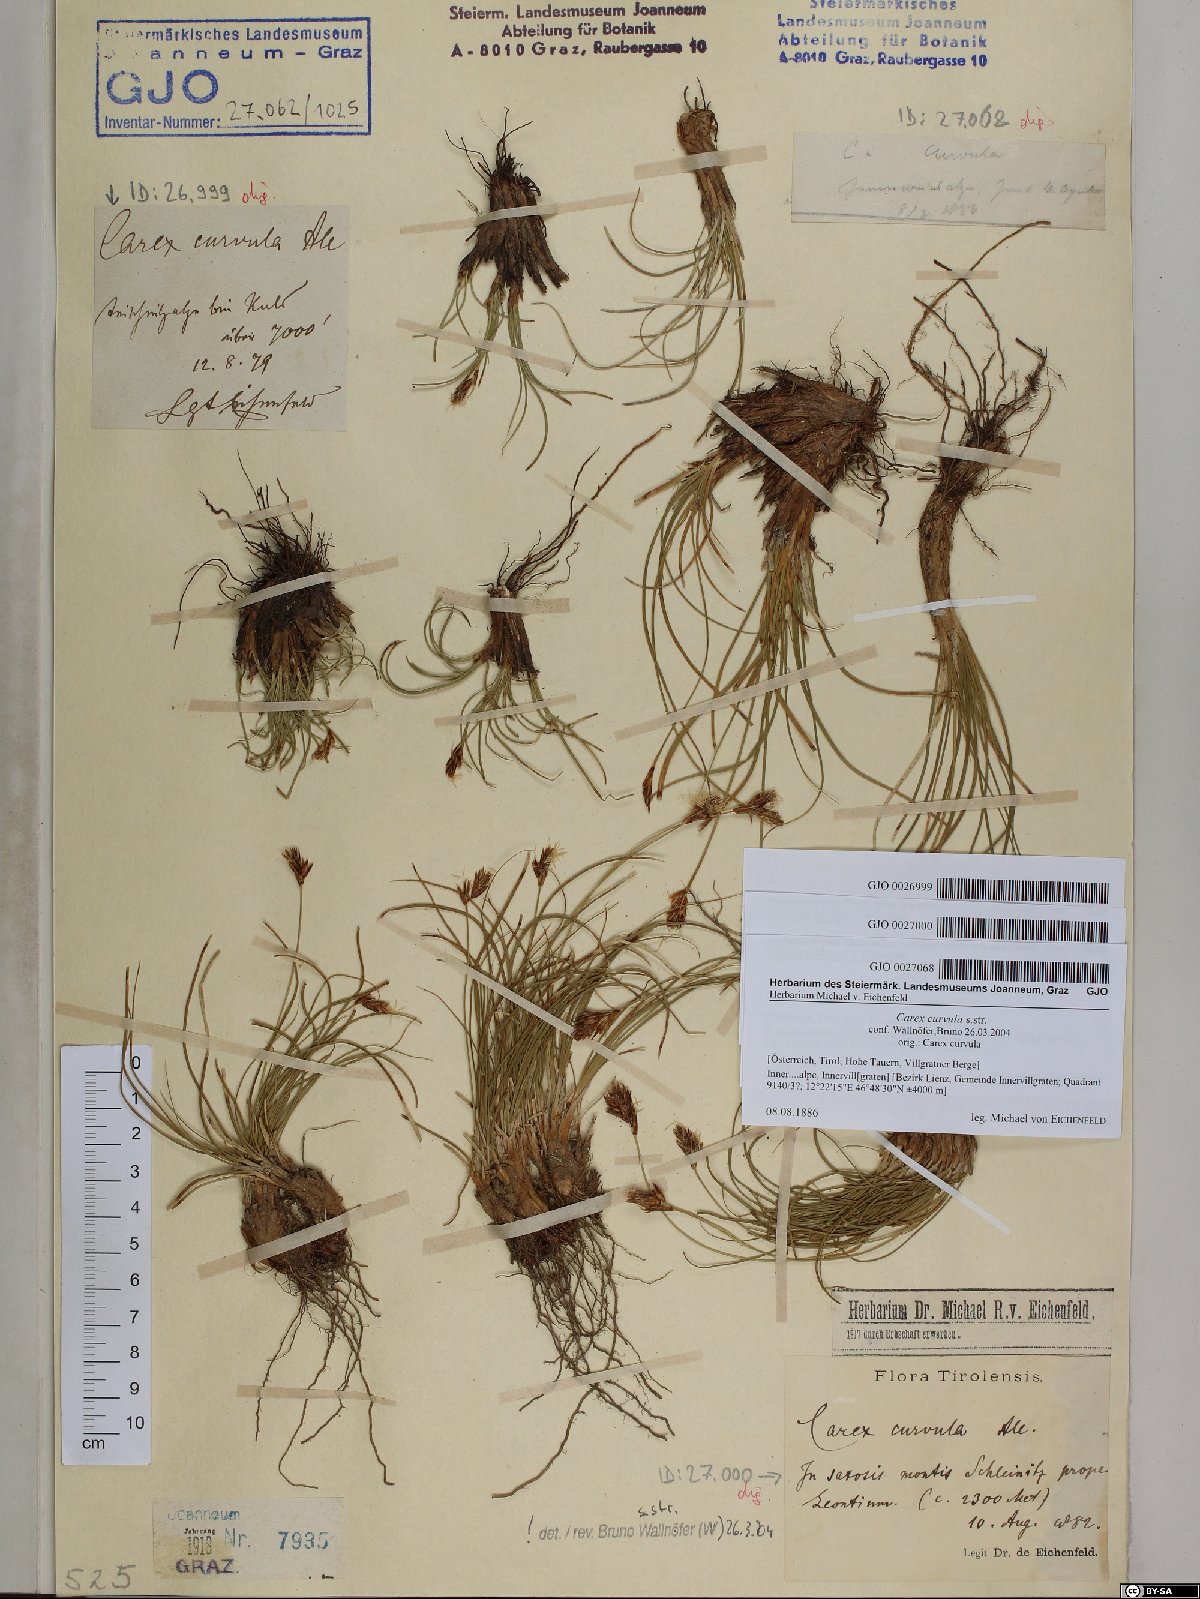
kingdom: Plantae
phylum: Tracheophyta
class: Liliopsida
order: Poales
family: Cyperaceae
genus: Carex
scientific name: Carex curvula
